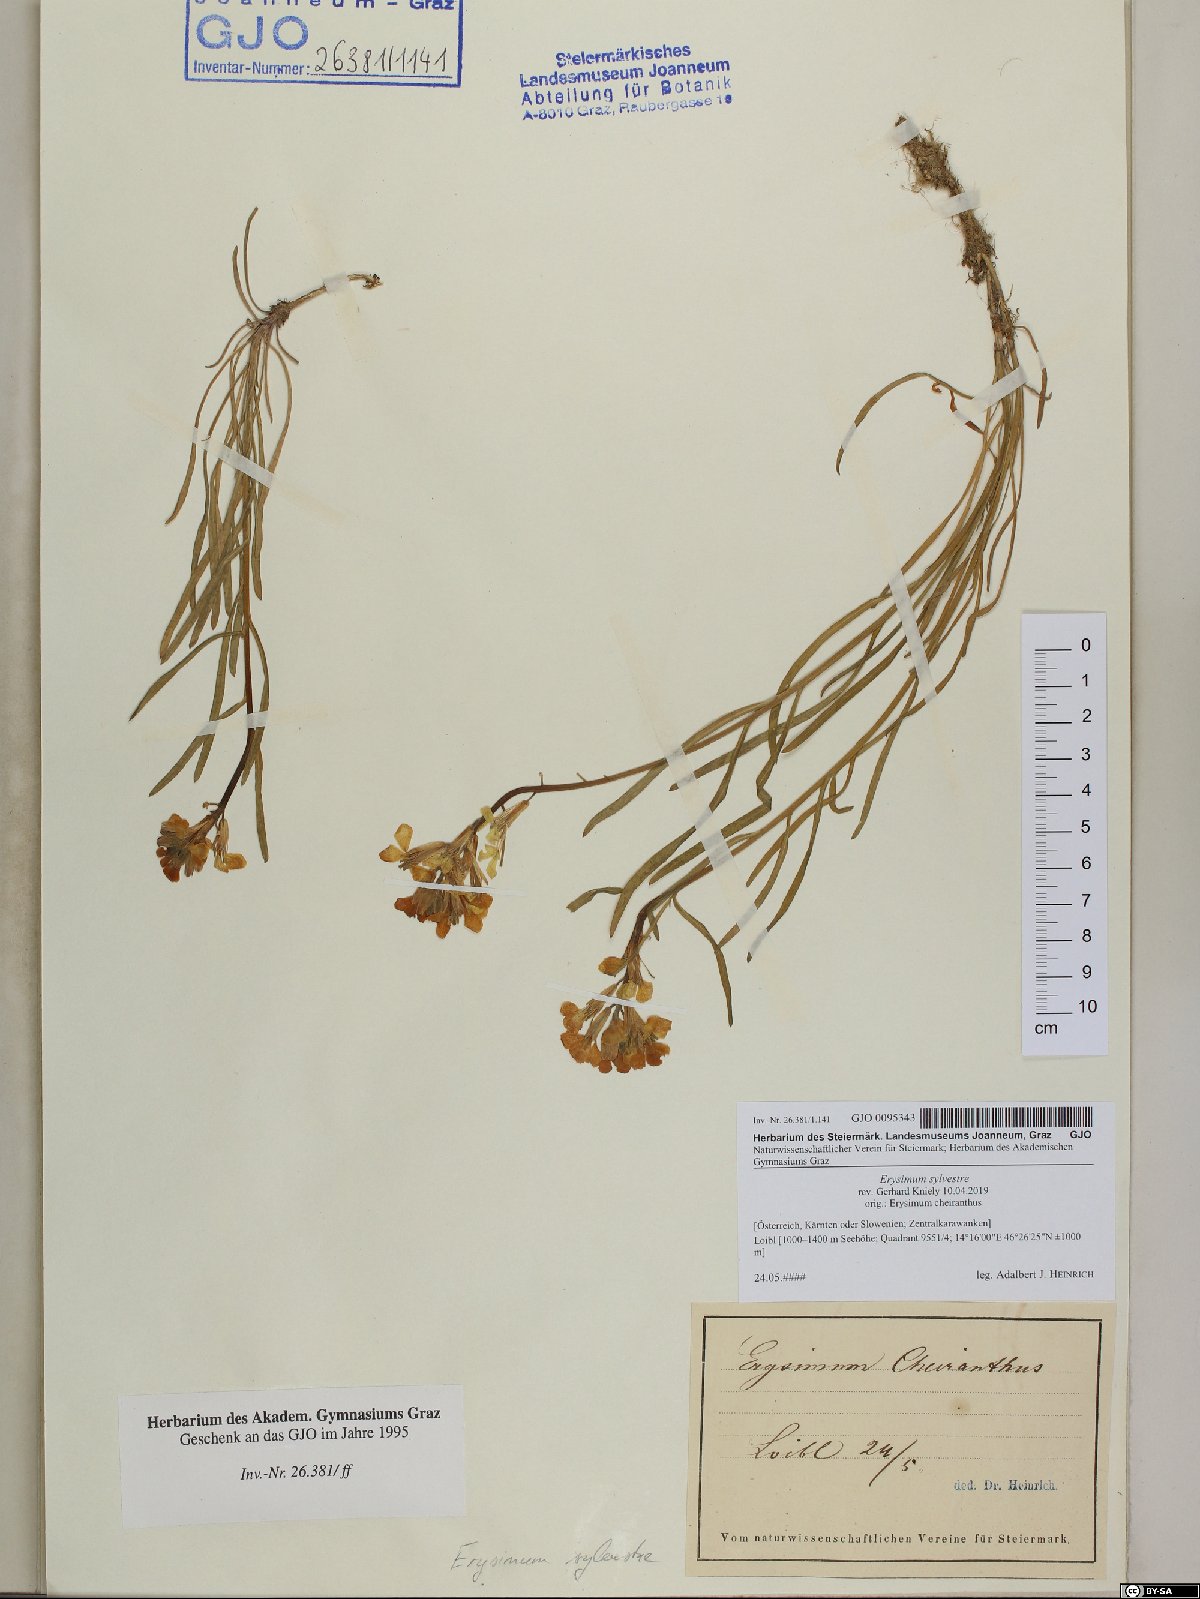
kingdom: Plantae
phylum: Tracheophyta
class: Magnoliopsida
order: Brassicales
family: Brassicaceae
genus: Erysimum
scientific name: Erysimum sylvestre
